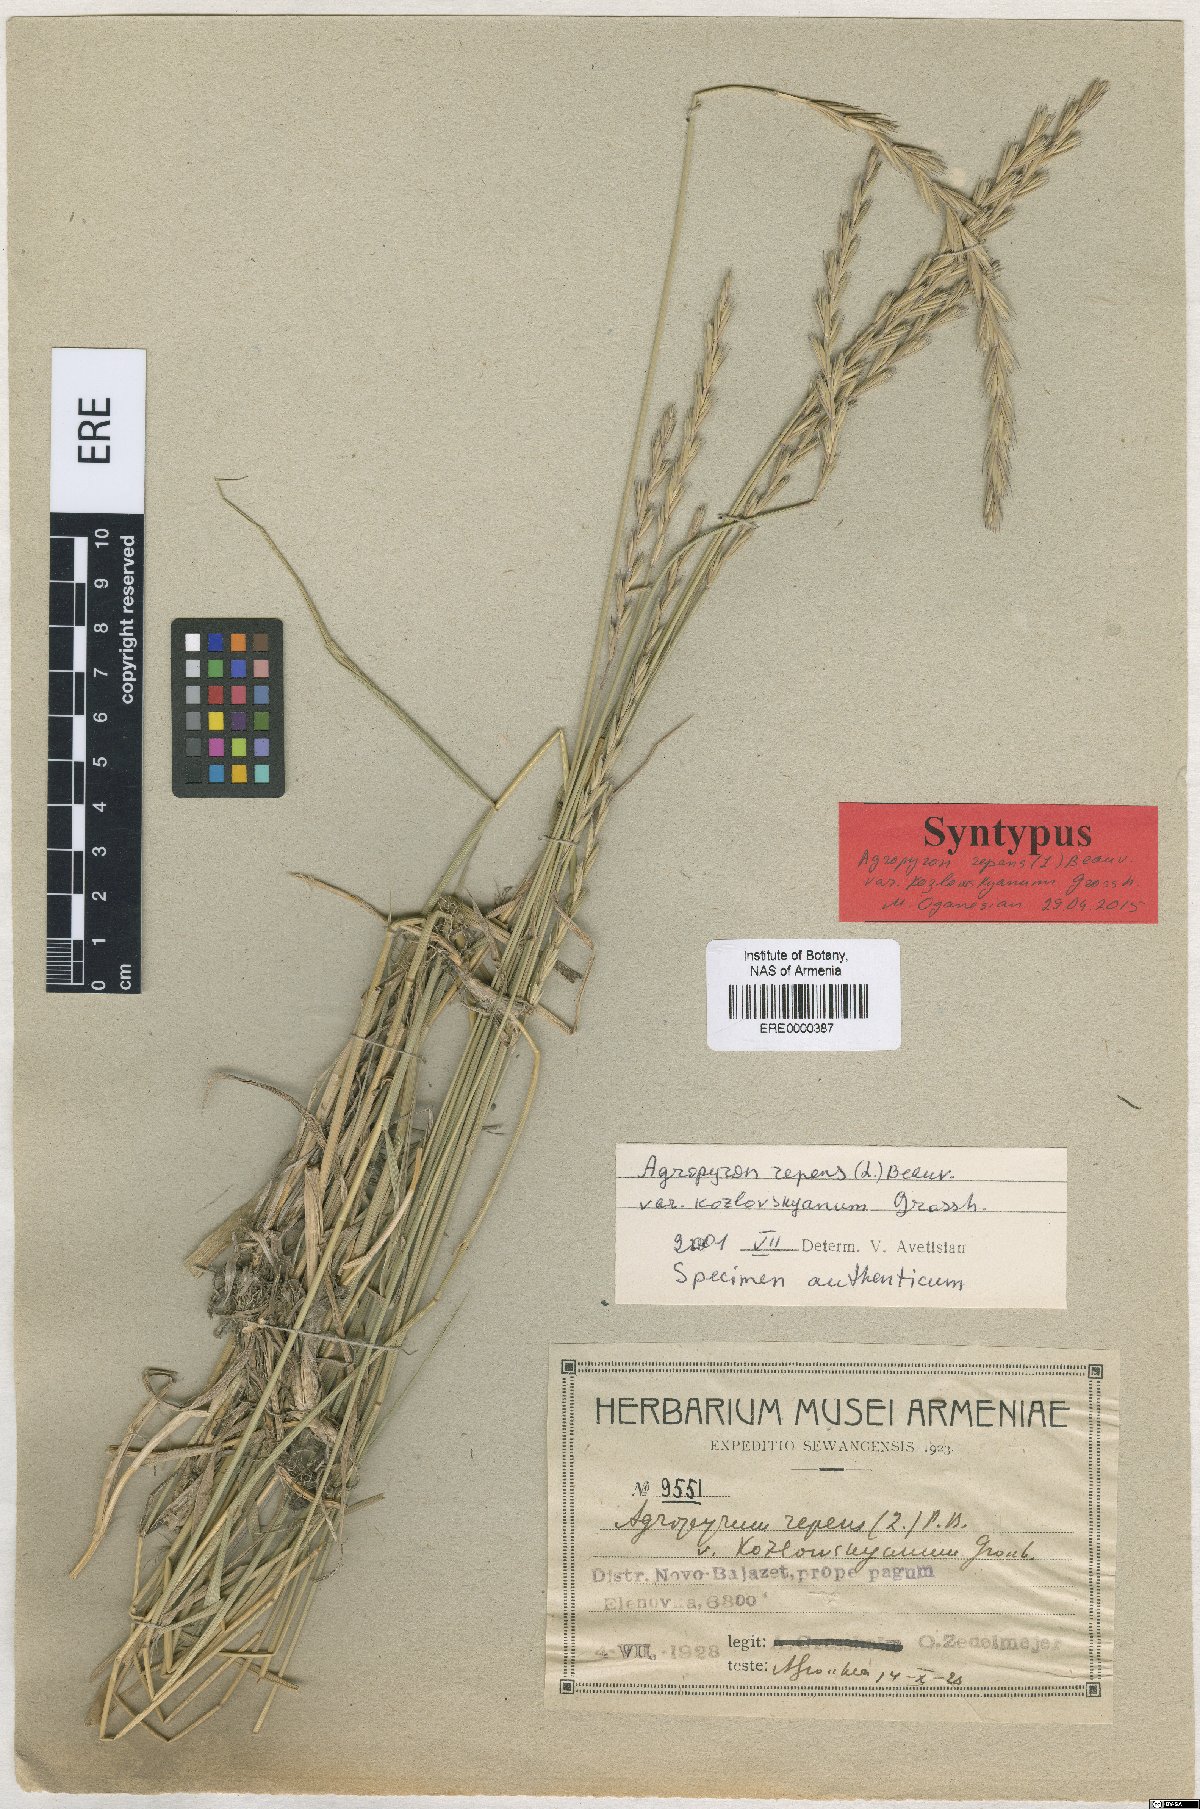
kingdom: Plantae
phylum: Tracheophyta
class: Liliopsida
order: Poales
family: Poaceae
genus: Elymus
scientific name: Elymus repens
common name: Quackgrass
